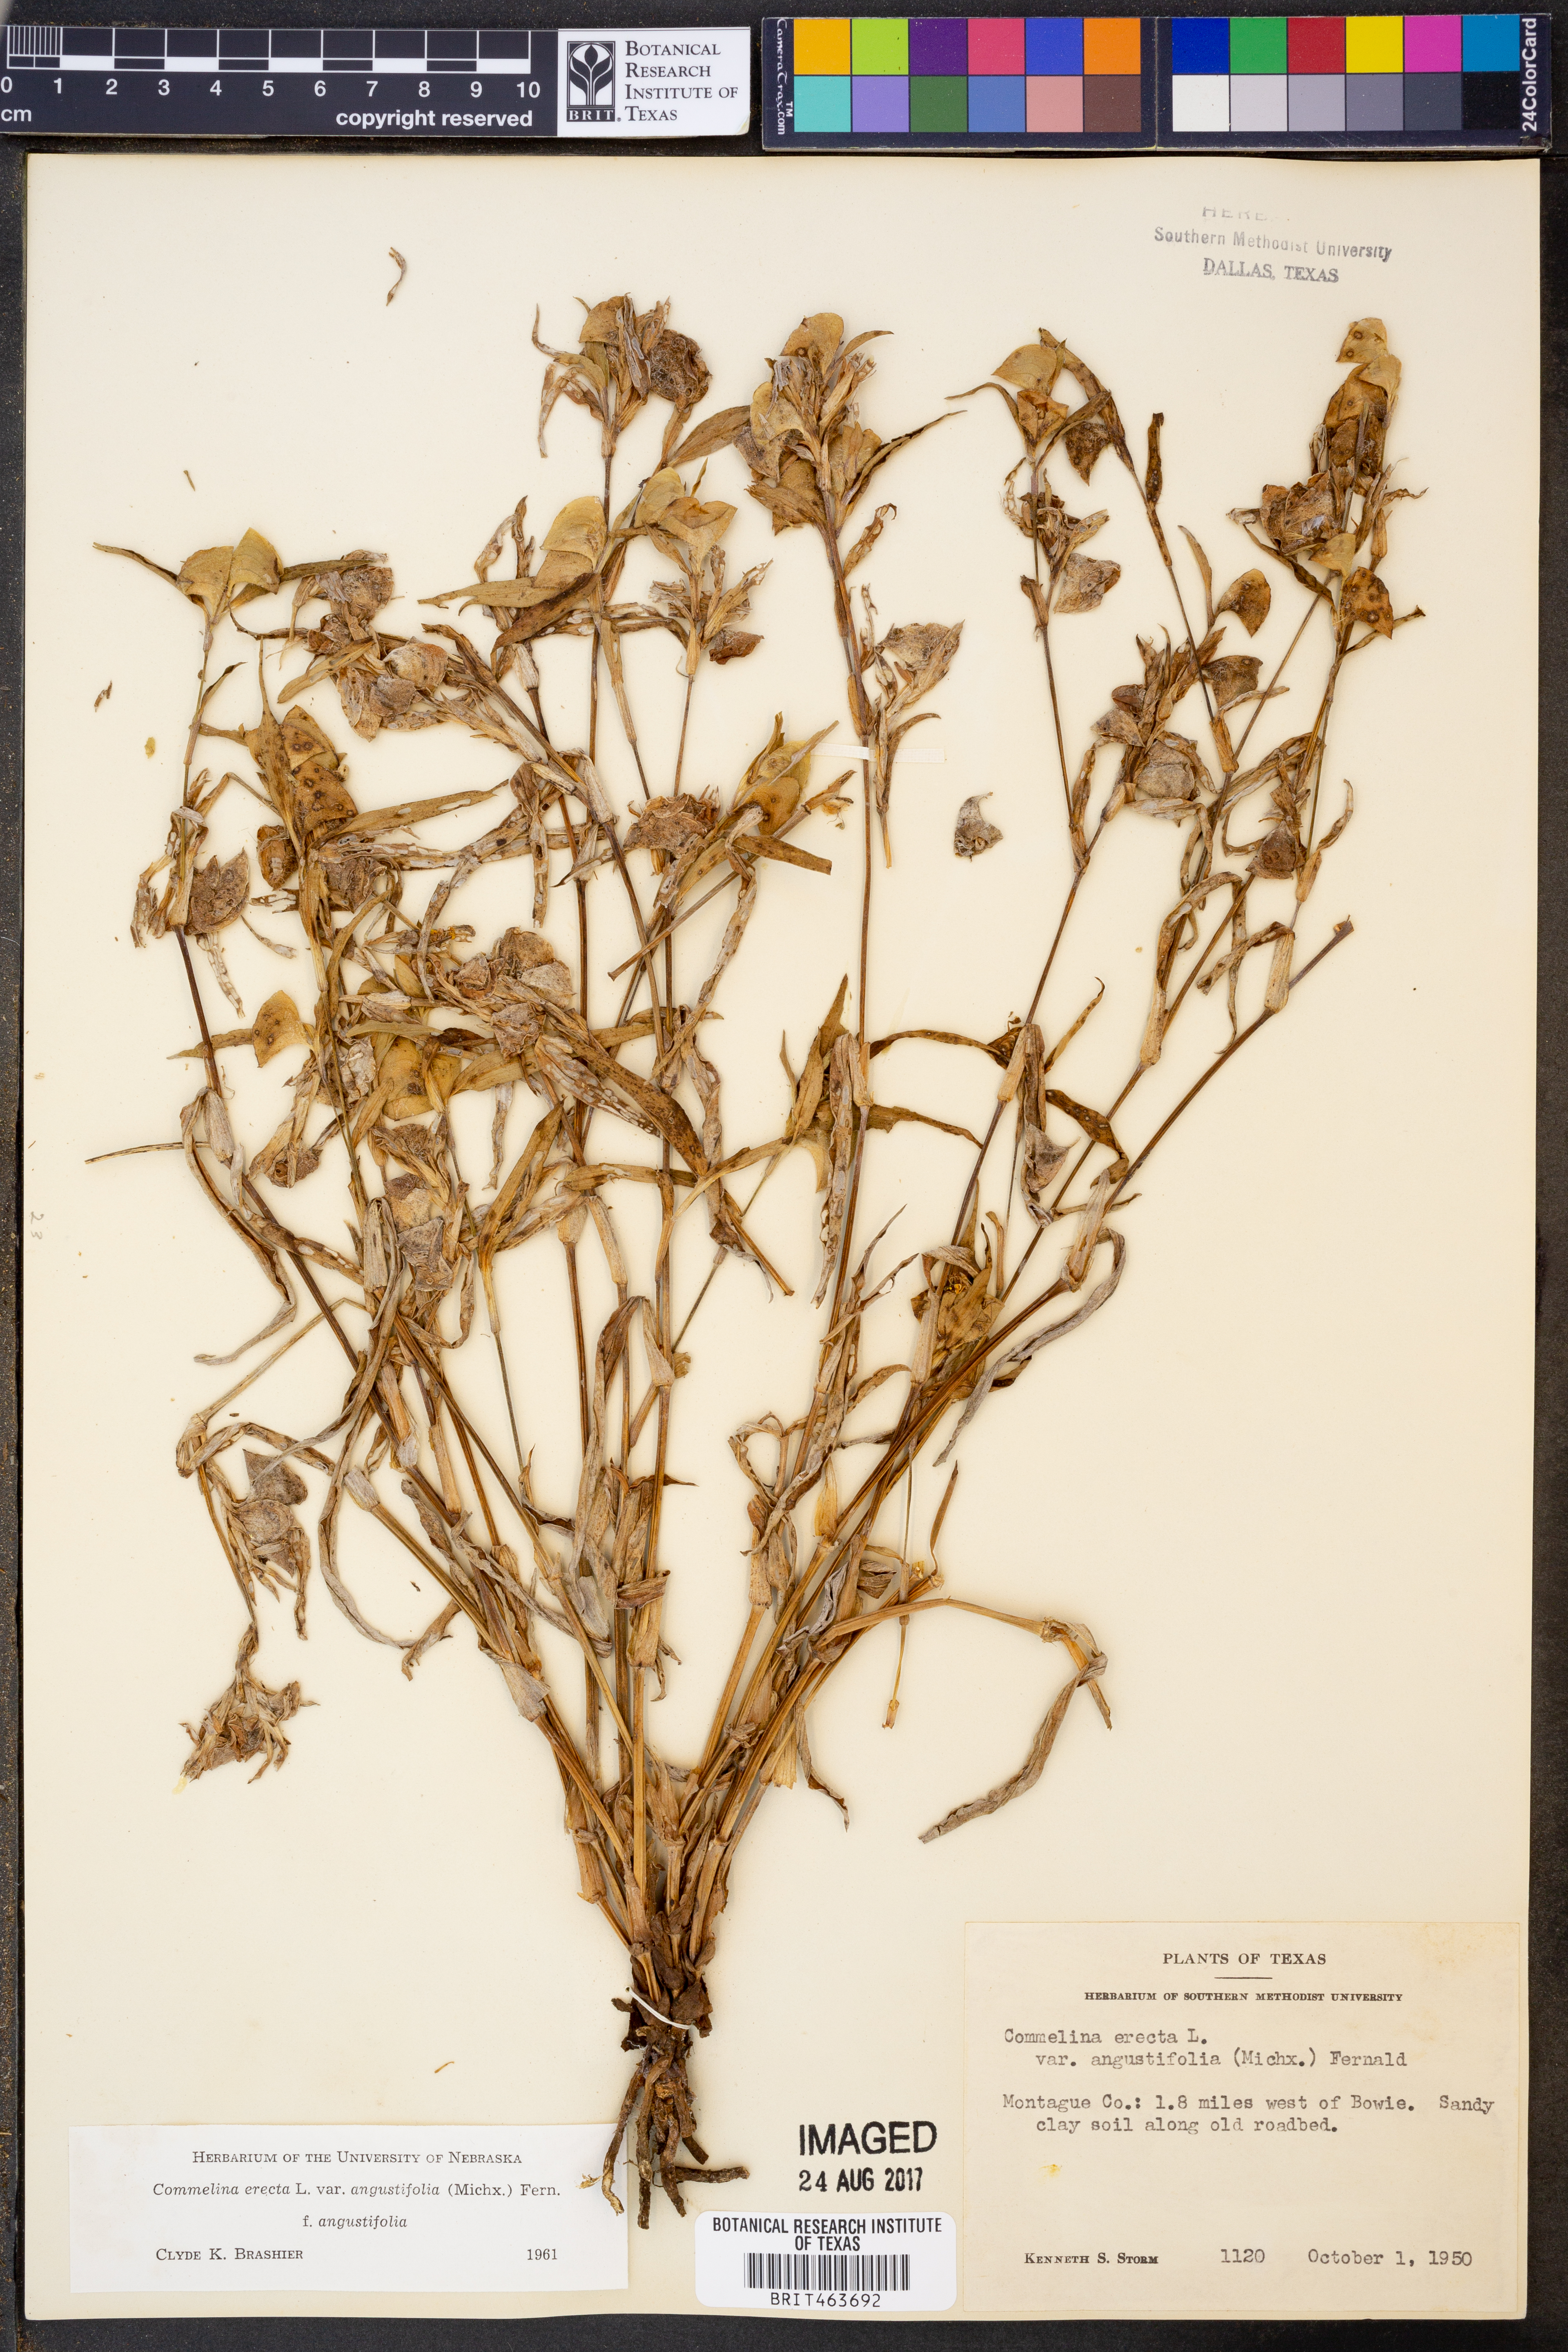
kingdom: Plantae
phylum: Tracheophyta
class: Liliopsida
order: Commelinales
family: Commelinaceae
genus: Commelina
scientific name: Commelina erecta
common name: Blousel blommetjie
